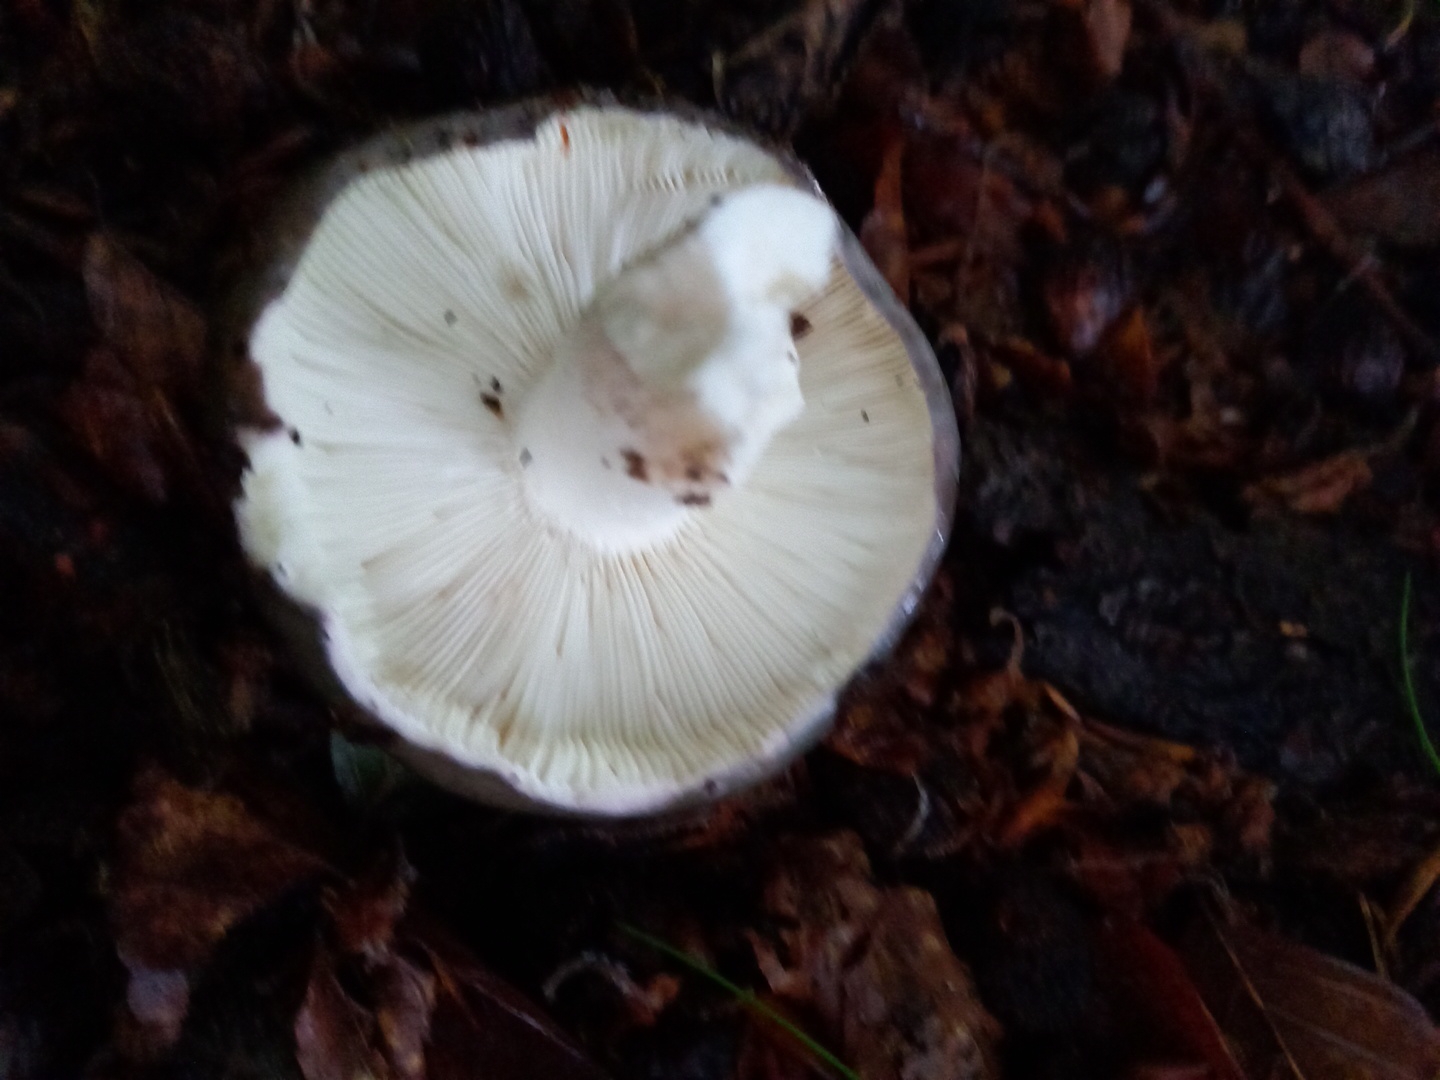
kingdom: Fungi
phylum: Basidiomycota
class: Agaricomycetes
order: Russulales
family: Russulaceae
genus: Russula
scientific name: Russula cyanoxantha
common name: broget skørhat
